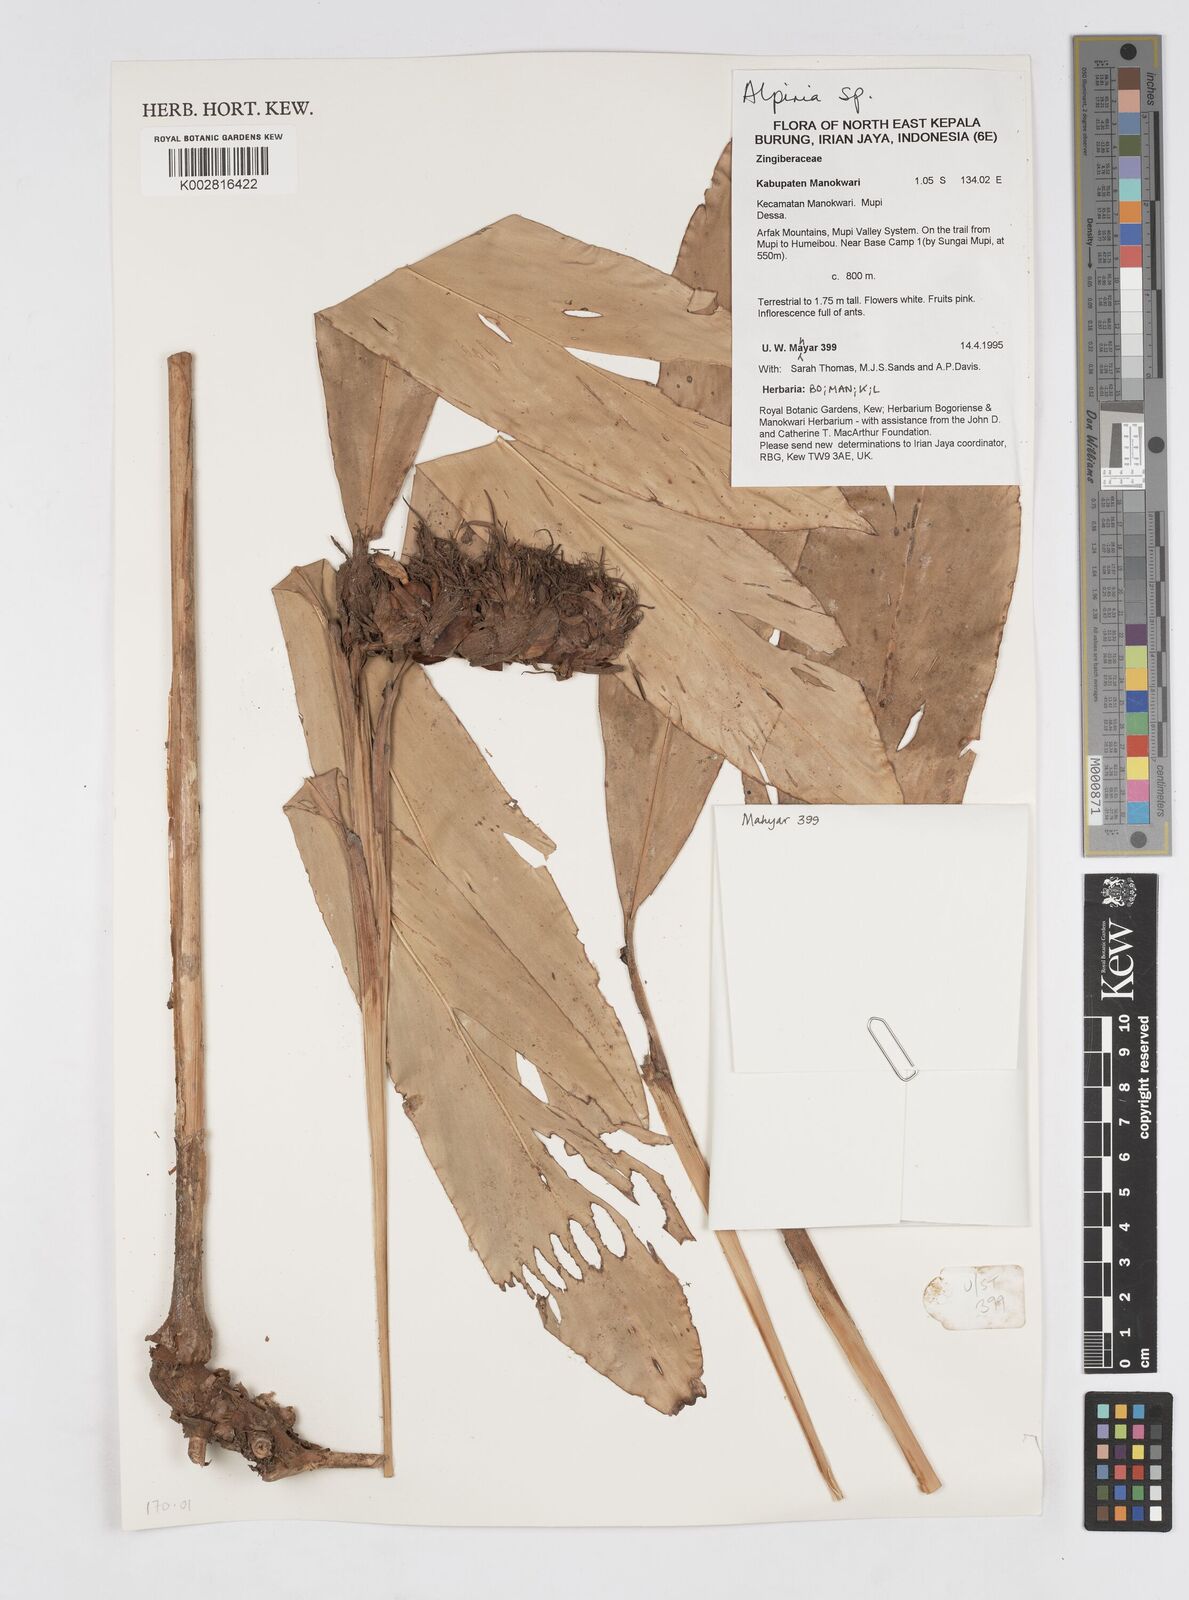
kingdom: Plantae
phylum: Tracheophyta
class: Liliopsida
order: Zingiberales
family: Zingiberaceae
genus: Alpinia
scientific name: Alpinia
